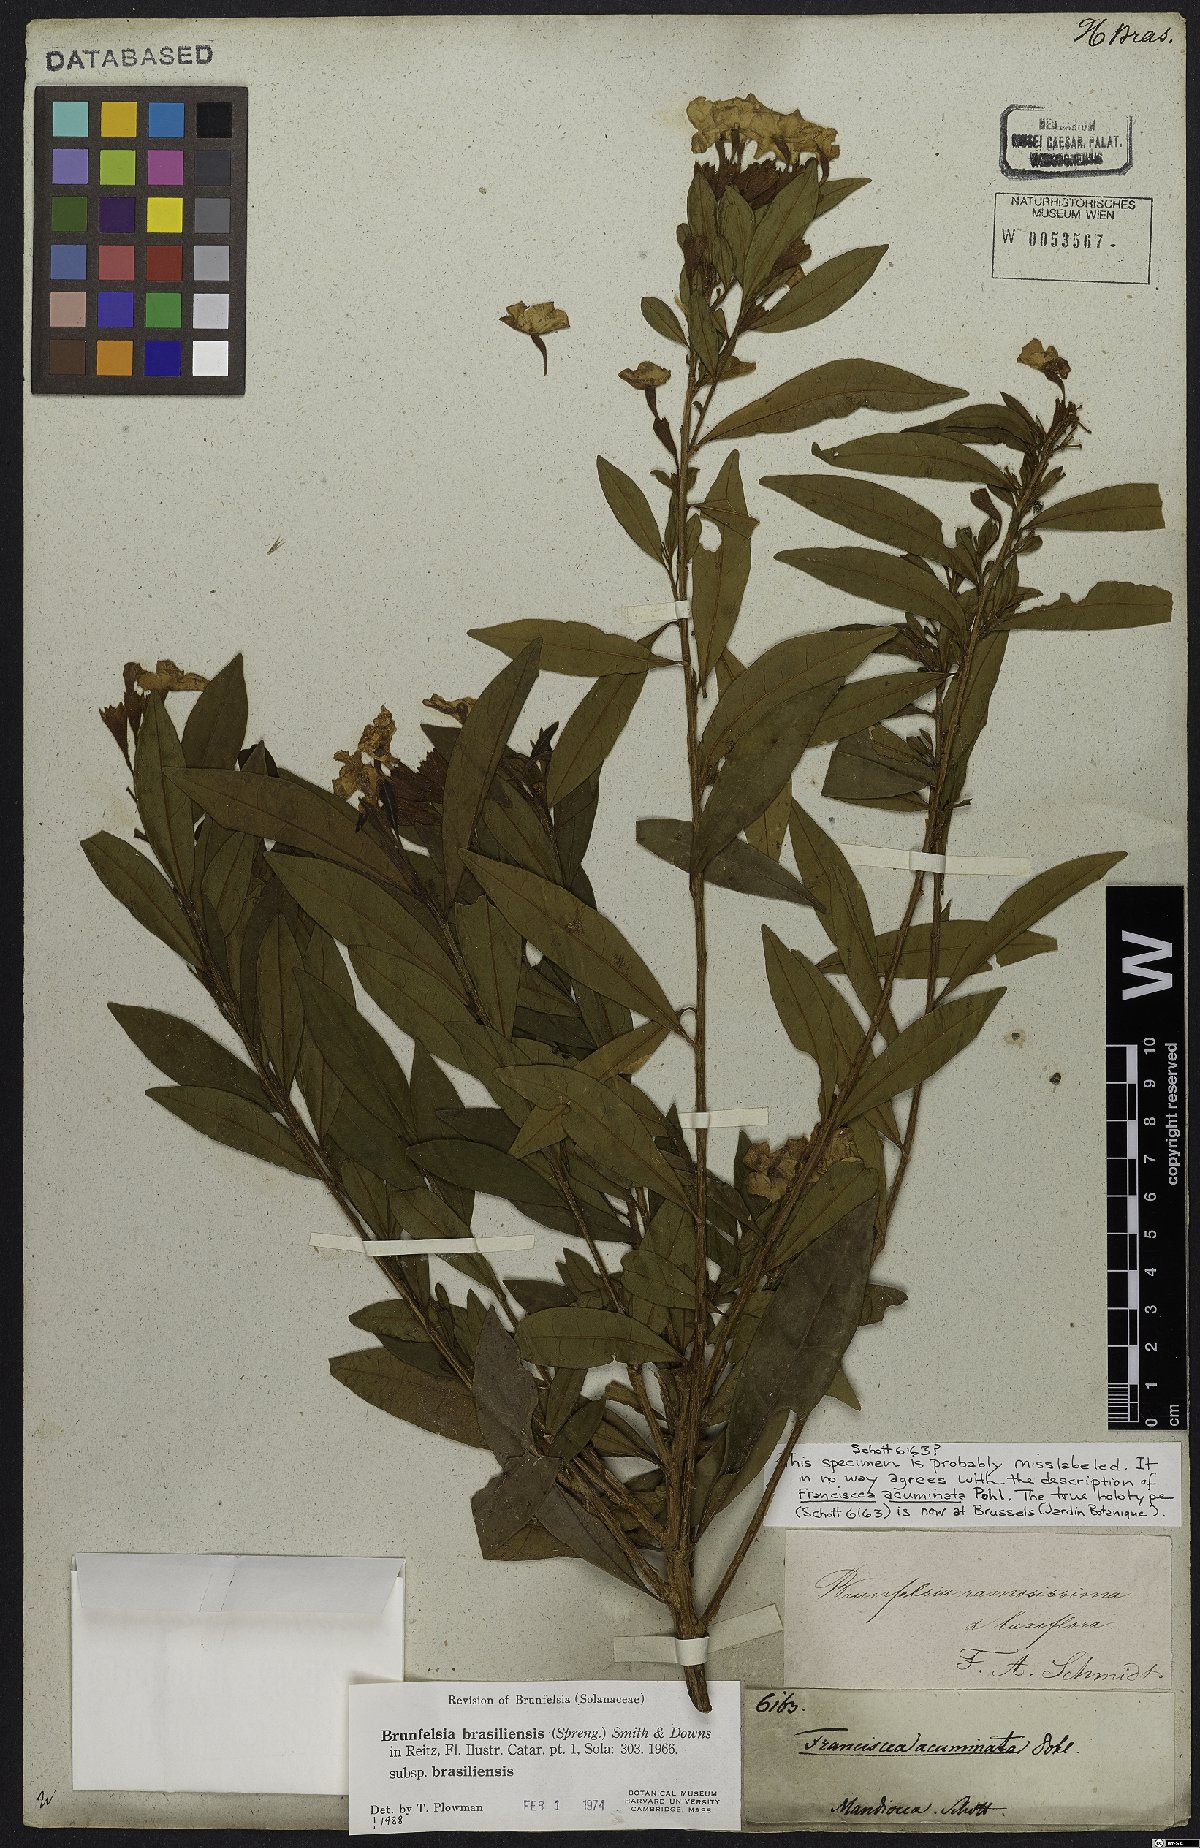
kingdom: Plantae
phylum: Tracheophyta
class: Magnoliopsida
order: Solanales
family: Solanaceae
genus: Brunfelsia
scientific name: Brunfelsia brasiliensis
